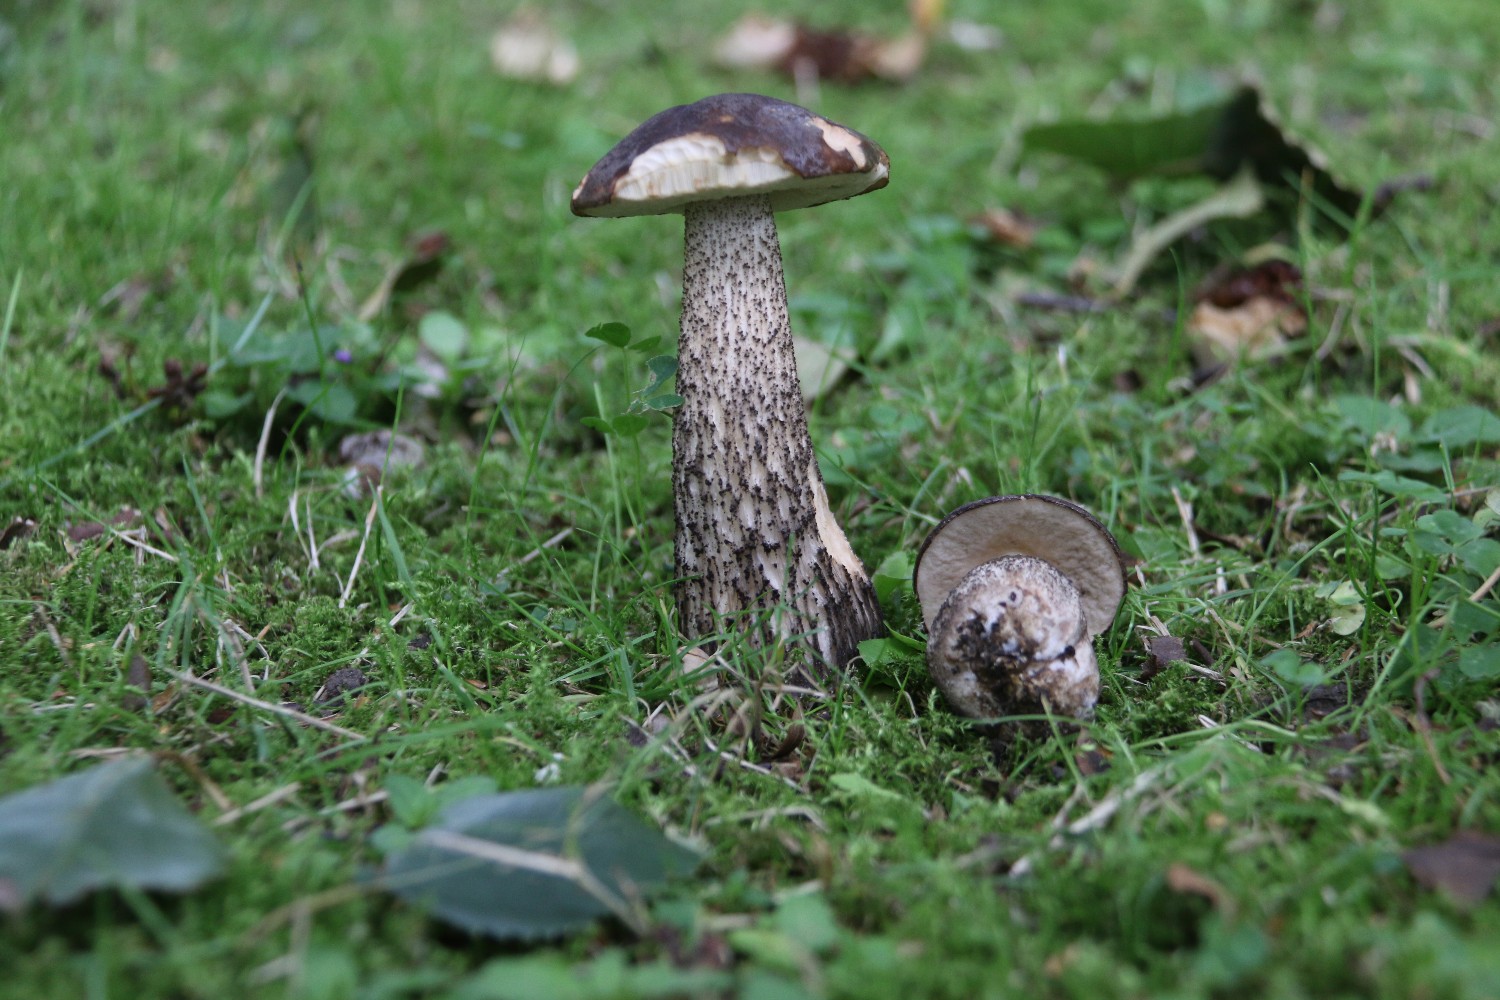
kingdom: Fungi
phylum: Basidiomycota
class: Agaricomycetes
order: Boletales
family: Boletaceae
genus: Leccinum
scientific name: Leccinum scabrum
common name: brun skælrørhat
